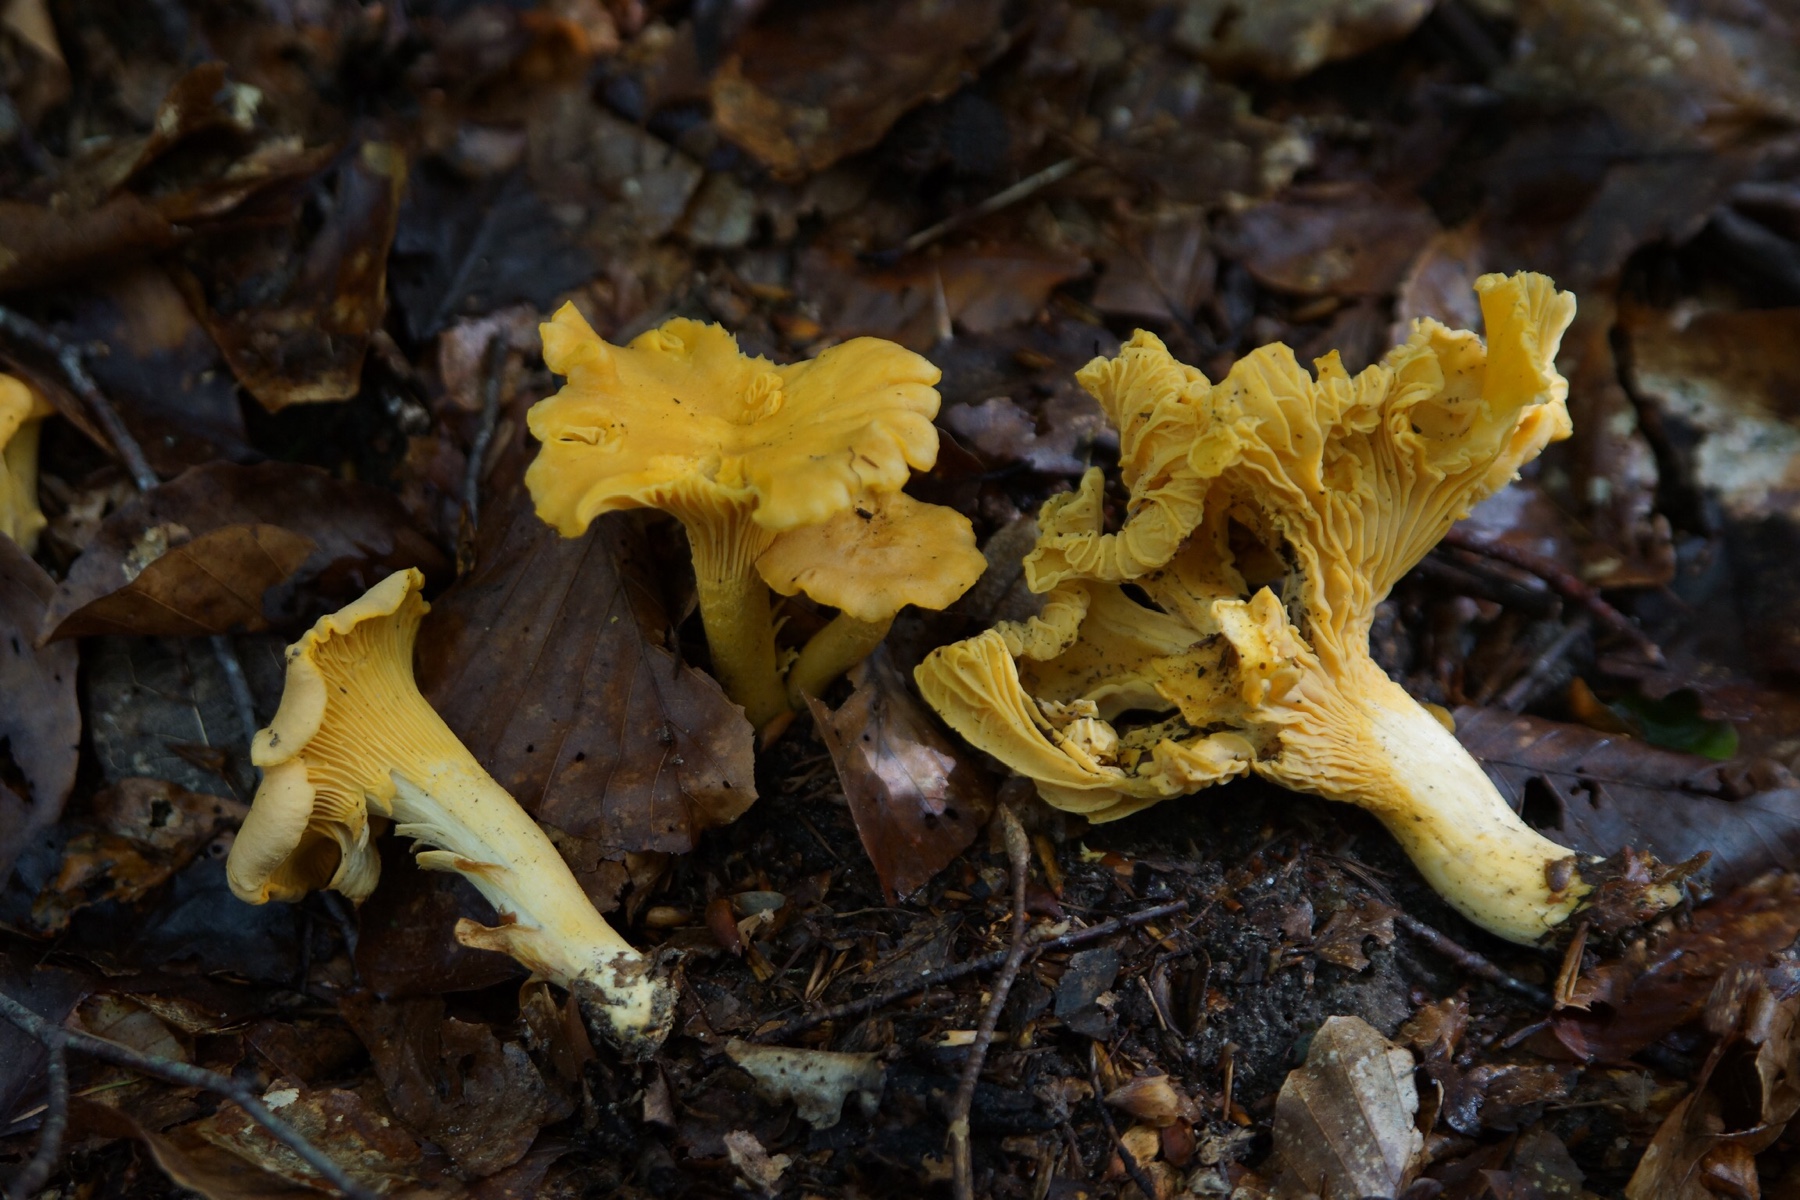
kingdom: Fungi
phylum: Basidiomycota
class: Agaricomycetes
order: Cantharellales
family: Hydnaceae
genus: Cantharellus
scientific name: Cantharellus cibarius
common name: almindelig kantarel
